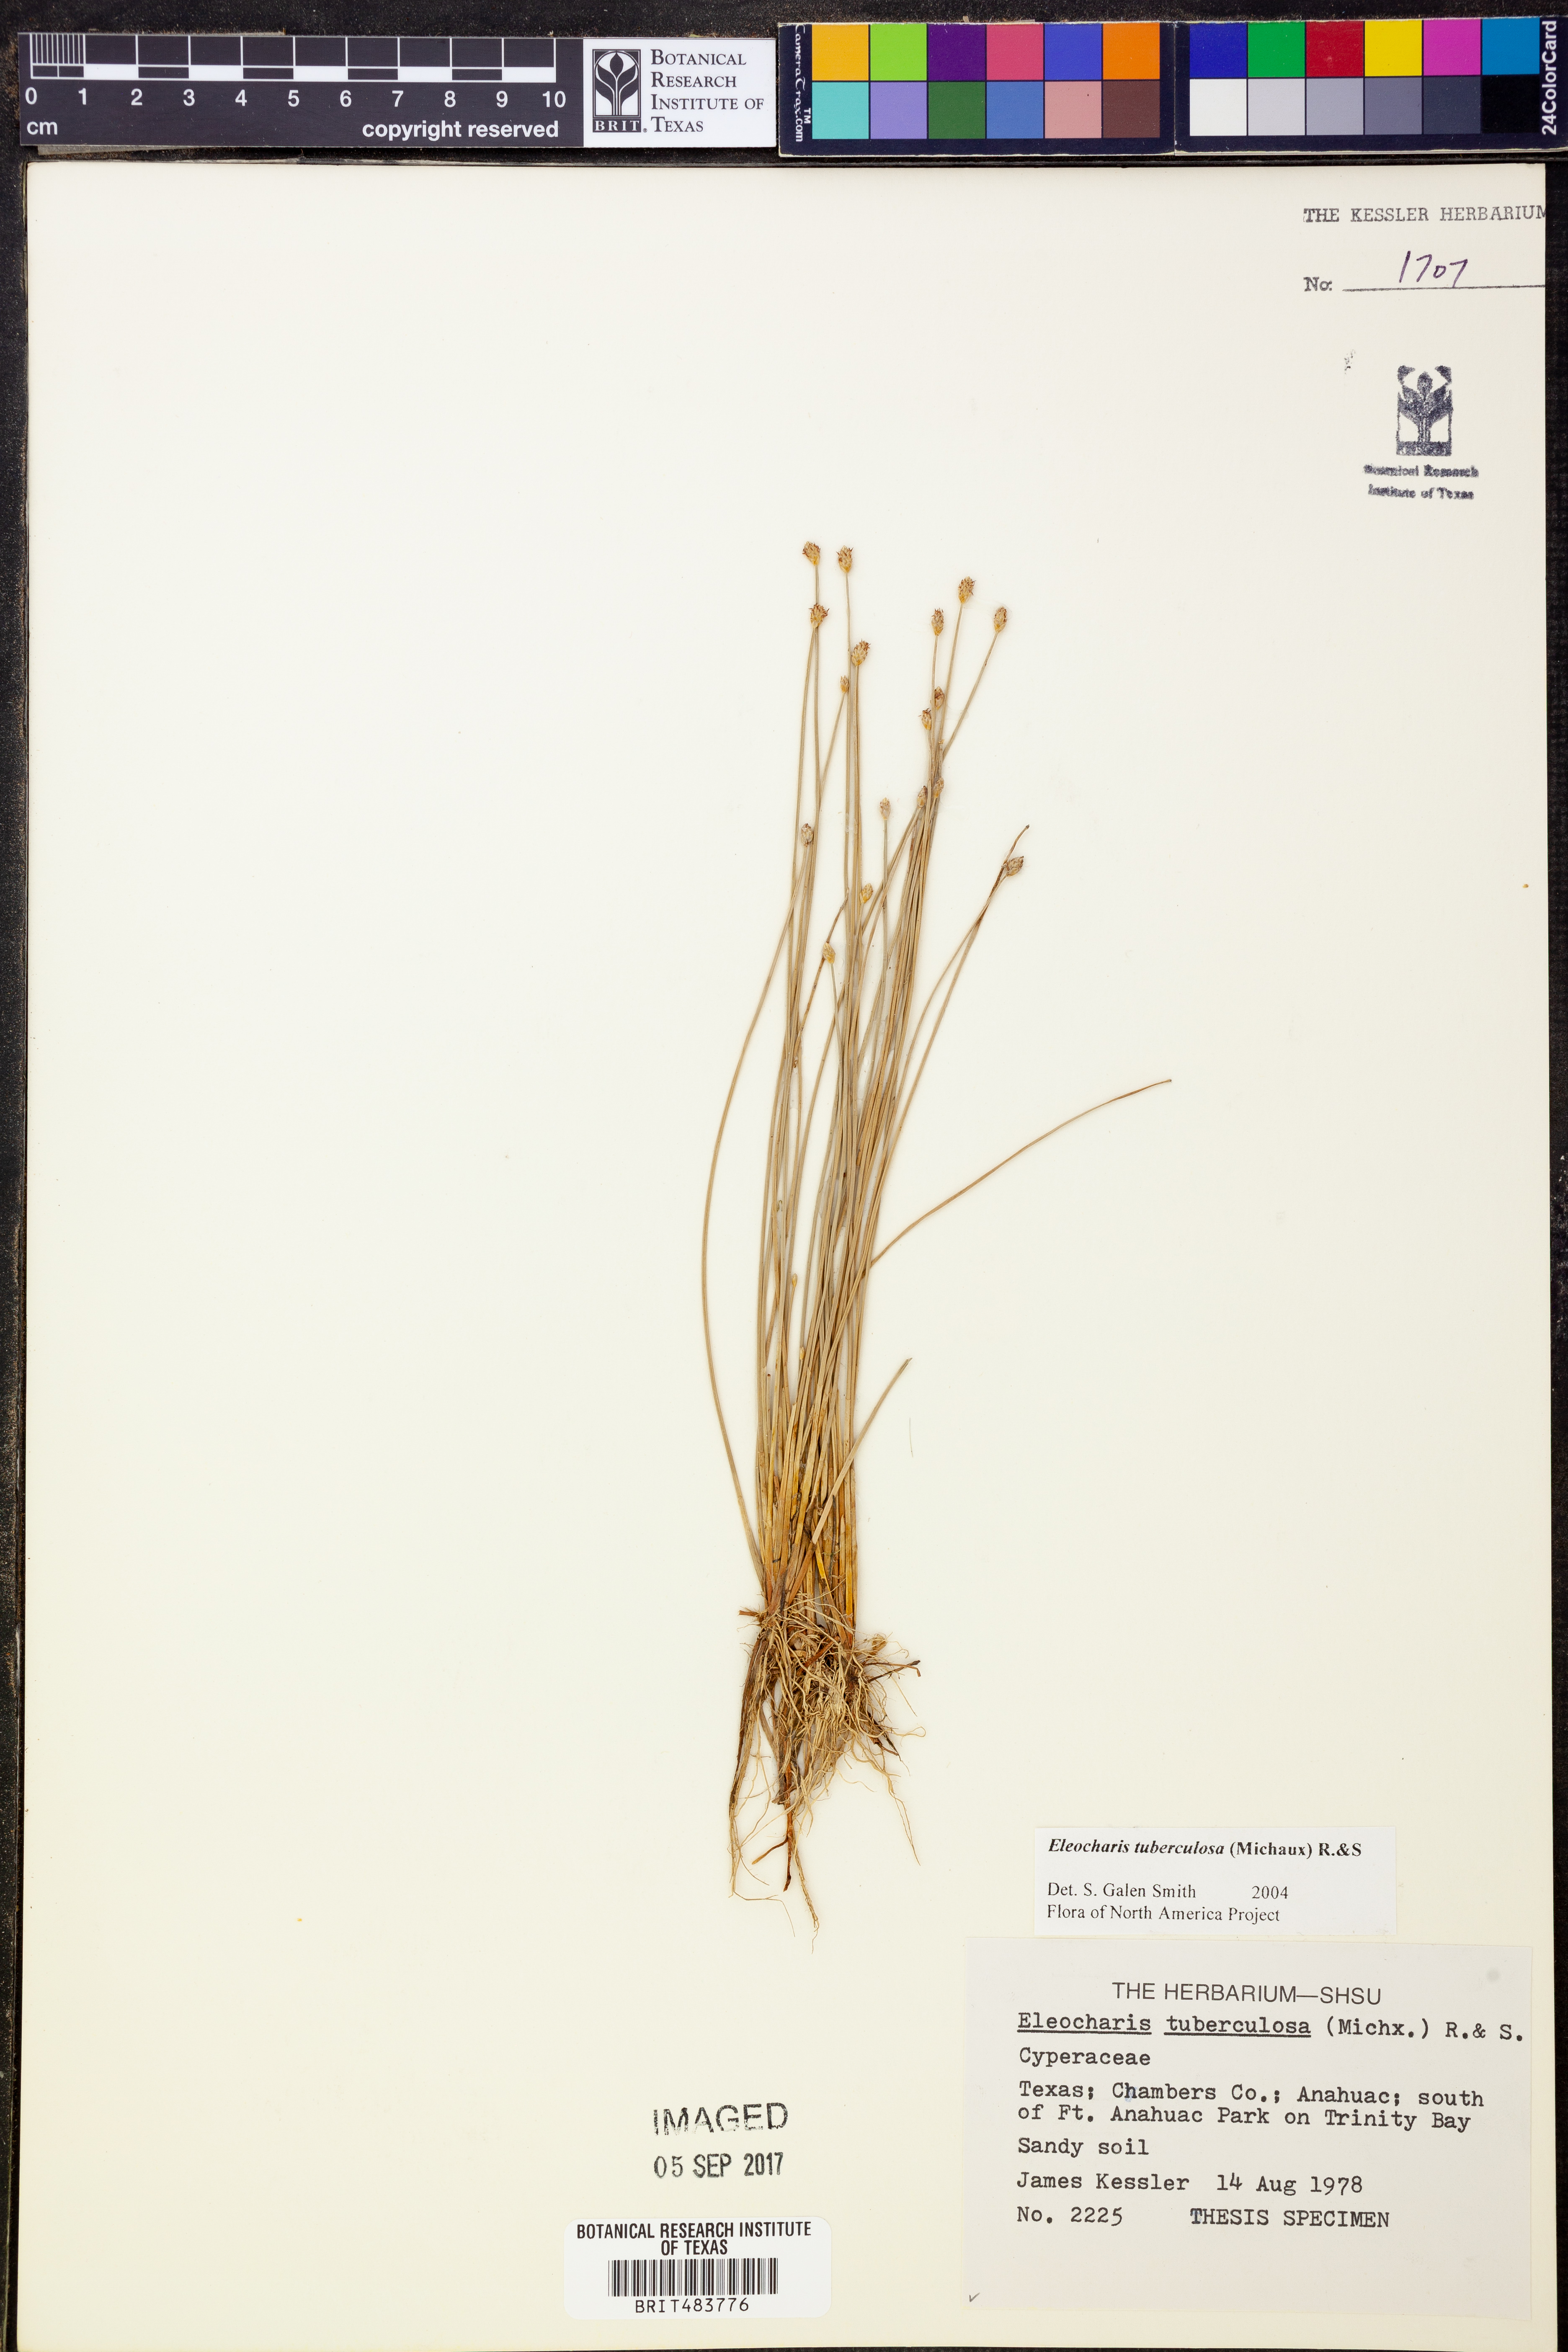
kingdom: Plantae
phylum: Tracheophyta
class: Liliopsida
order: Poales
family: Cyperaceae
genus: Eleocharis
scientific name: Eleocharis tuberculosa
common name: Cone-cup spikerush
